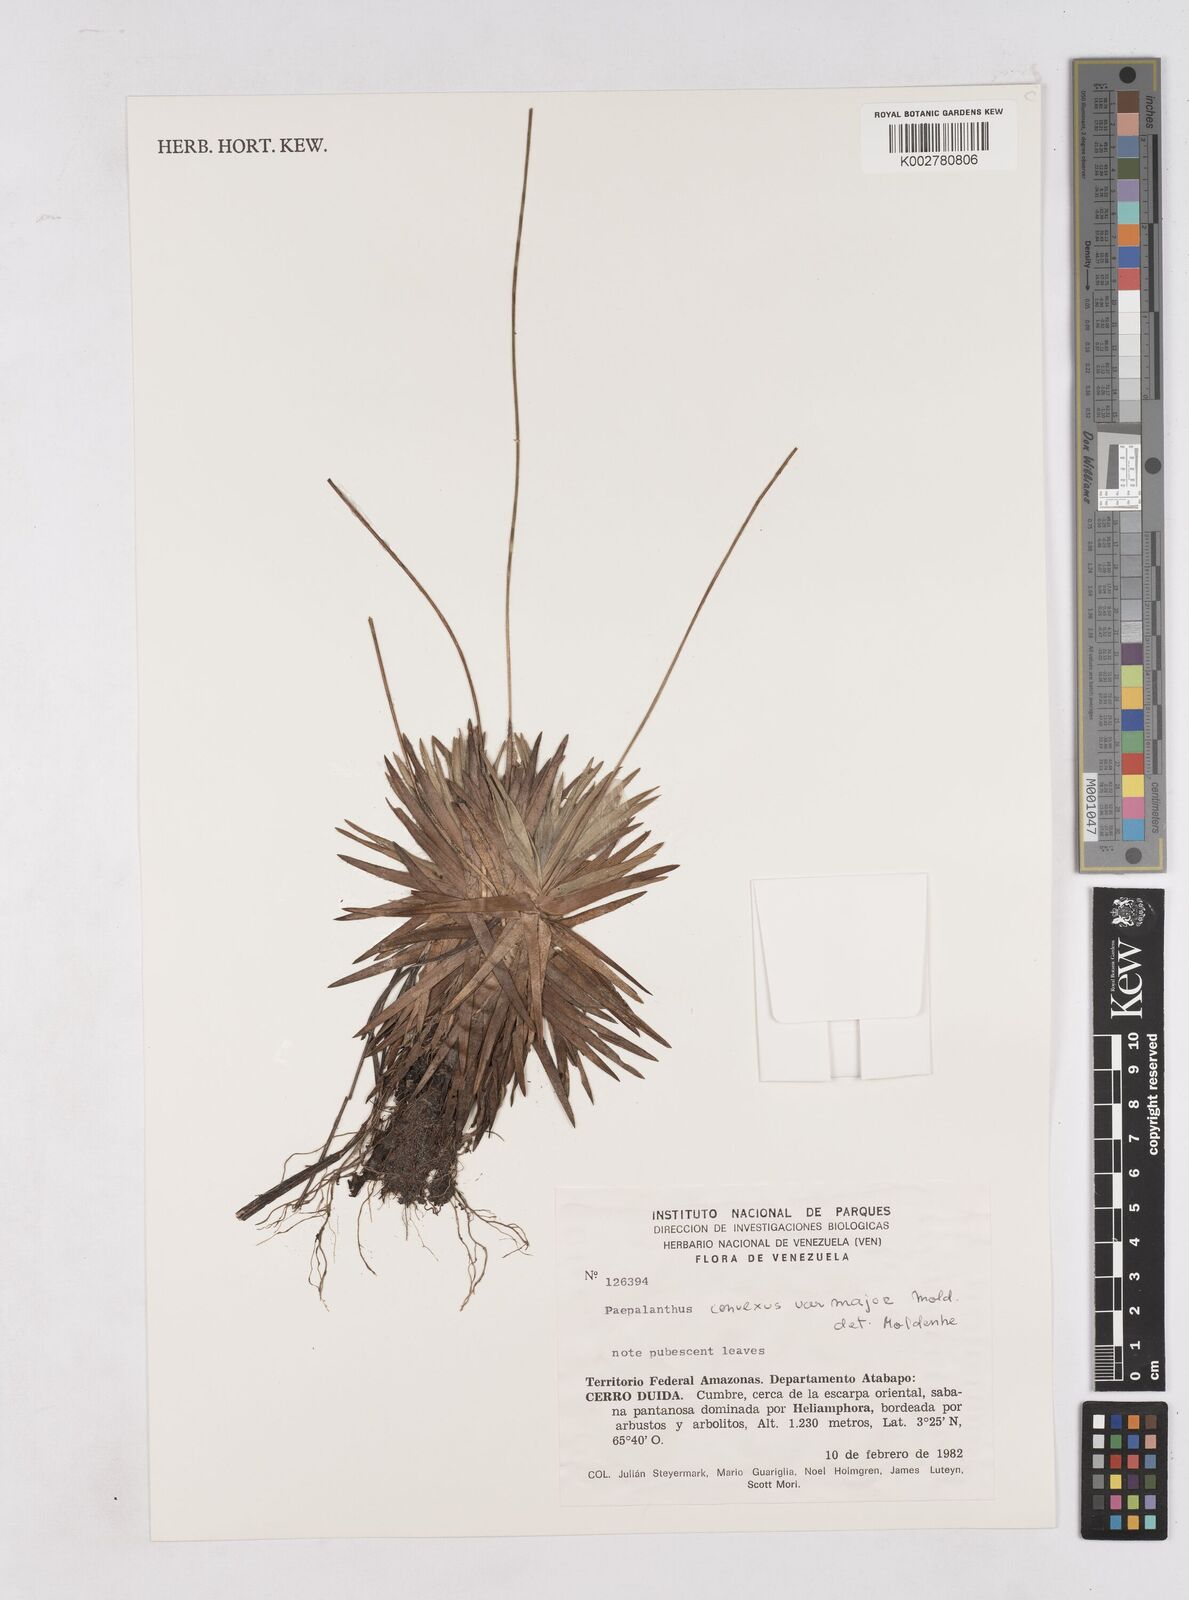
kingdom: Plantae
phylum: Tracheophyta
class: Liliopsida
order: Poales
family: Eriocaulaceae
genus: Paepalanthus
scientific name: Paepalanthus major
